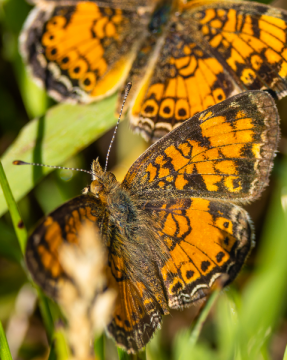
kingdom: Animalia
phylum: Arthropoda
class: Insecta
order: Lepidoptera
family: Nymphalidae
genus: Phyciodes
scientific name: Phyciodes tharos
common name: Pearl Crescent
